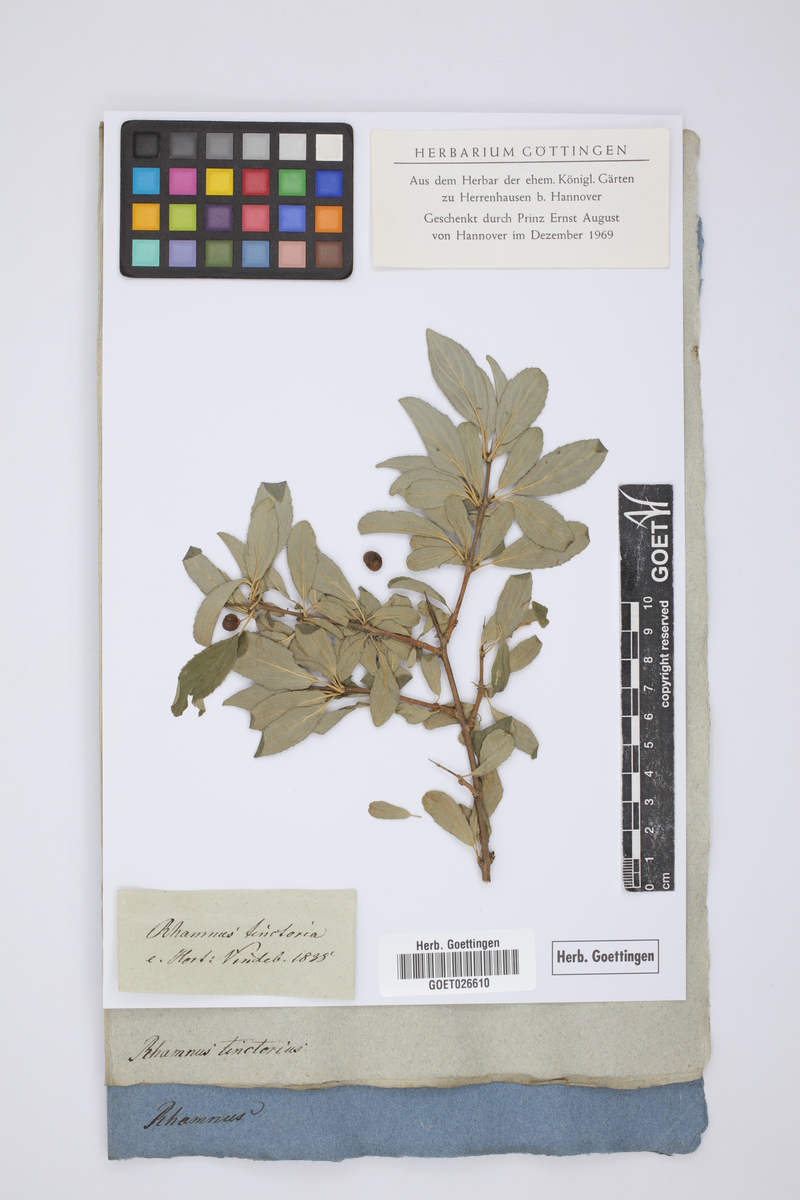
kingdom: Plantae
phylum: Tracheophyta
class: Magnoliopsida
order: Malpighiales
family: Phyllanthaceae
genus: Flueggea
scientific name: Flueggea tinctoria
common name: Tamujo
